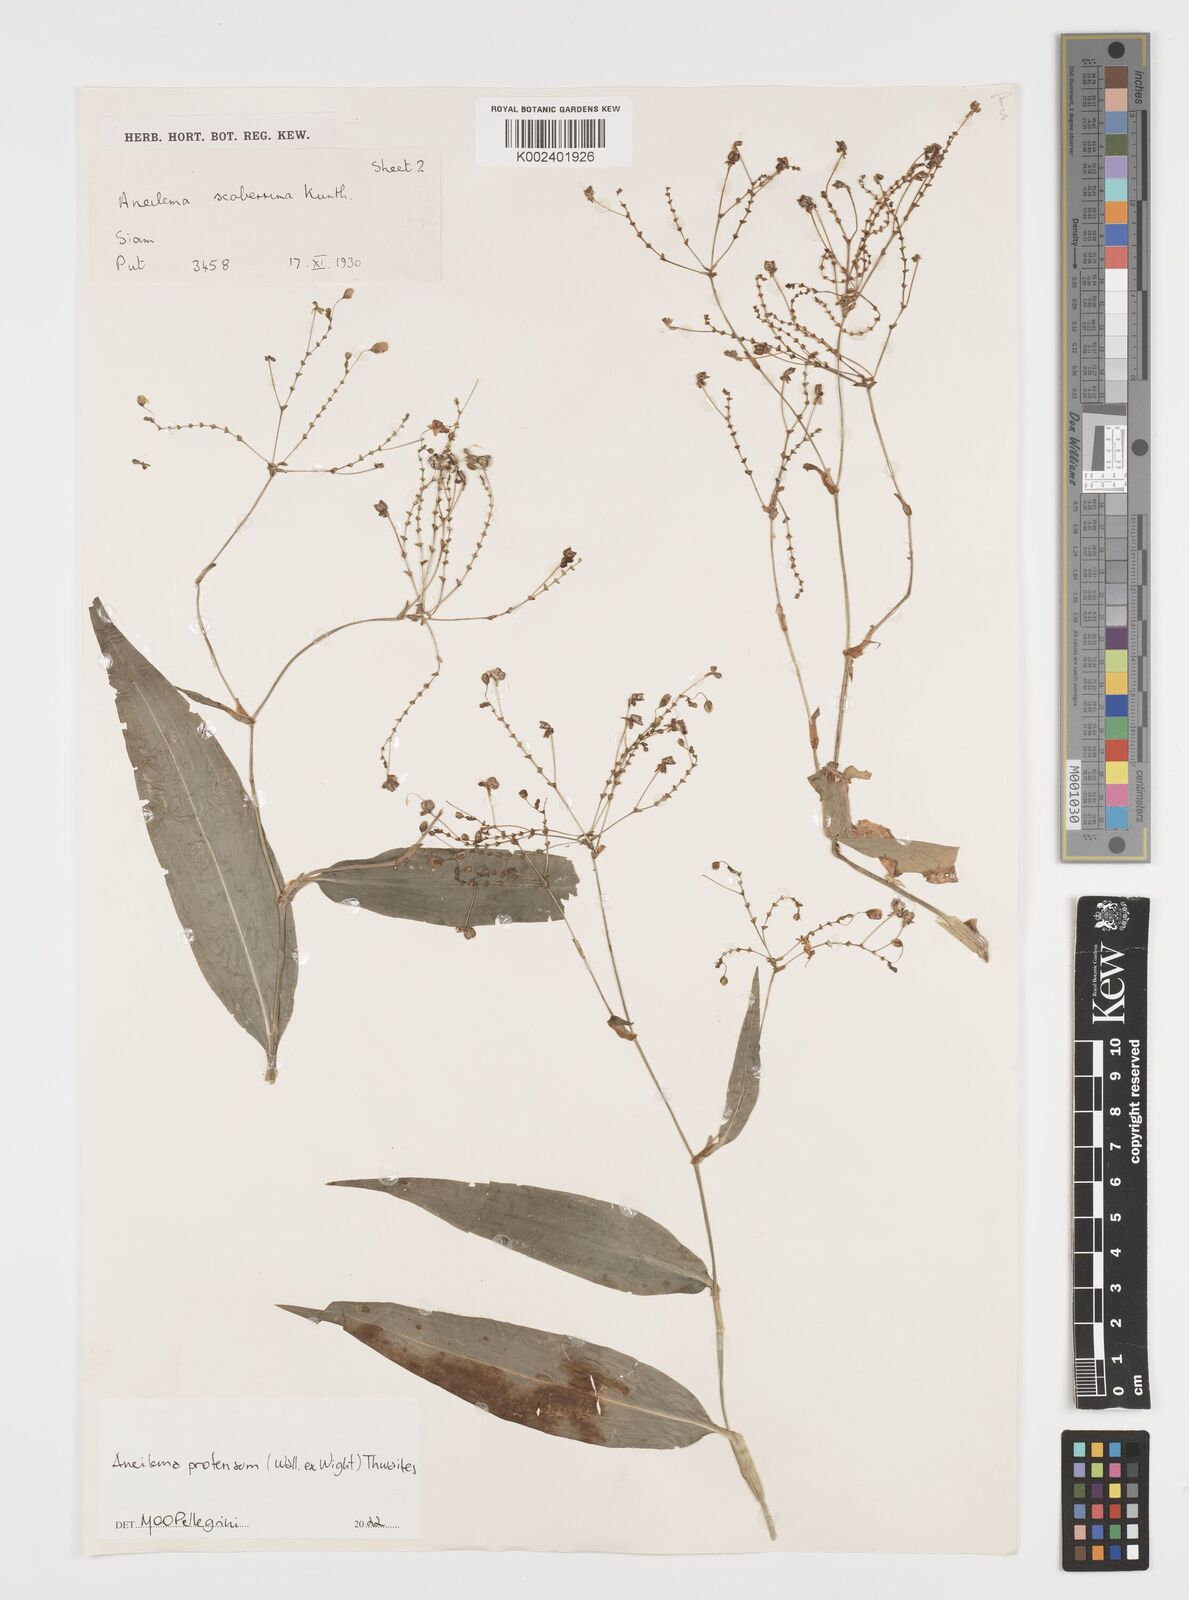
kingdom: Plantae
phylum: Tracheophyta
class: Liliopsida
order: Commelinales
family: Commelinaceae
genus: Rhopalephora
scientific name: Rhopalephora
